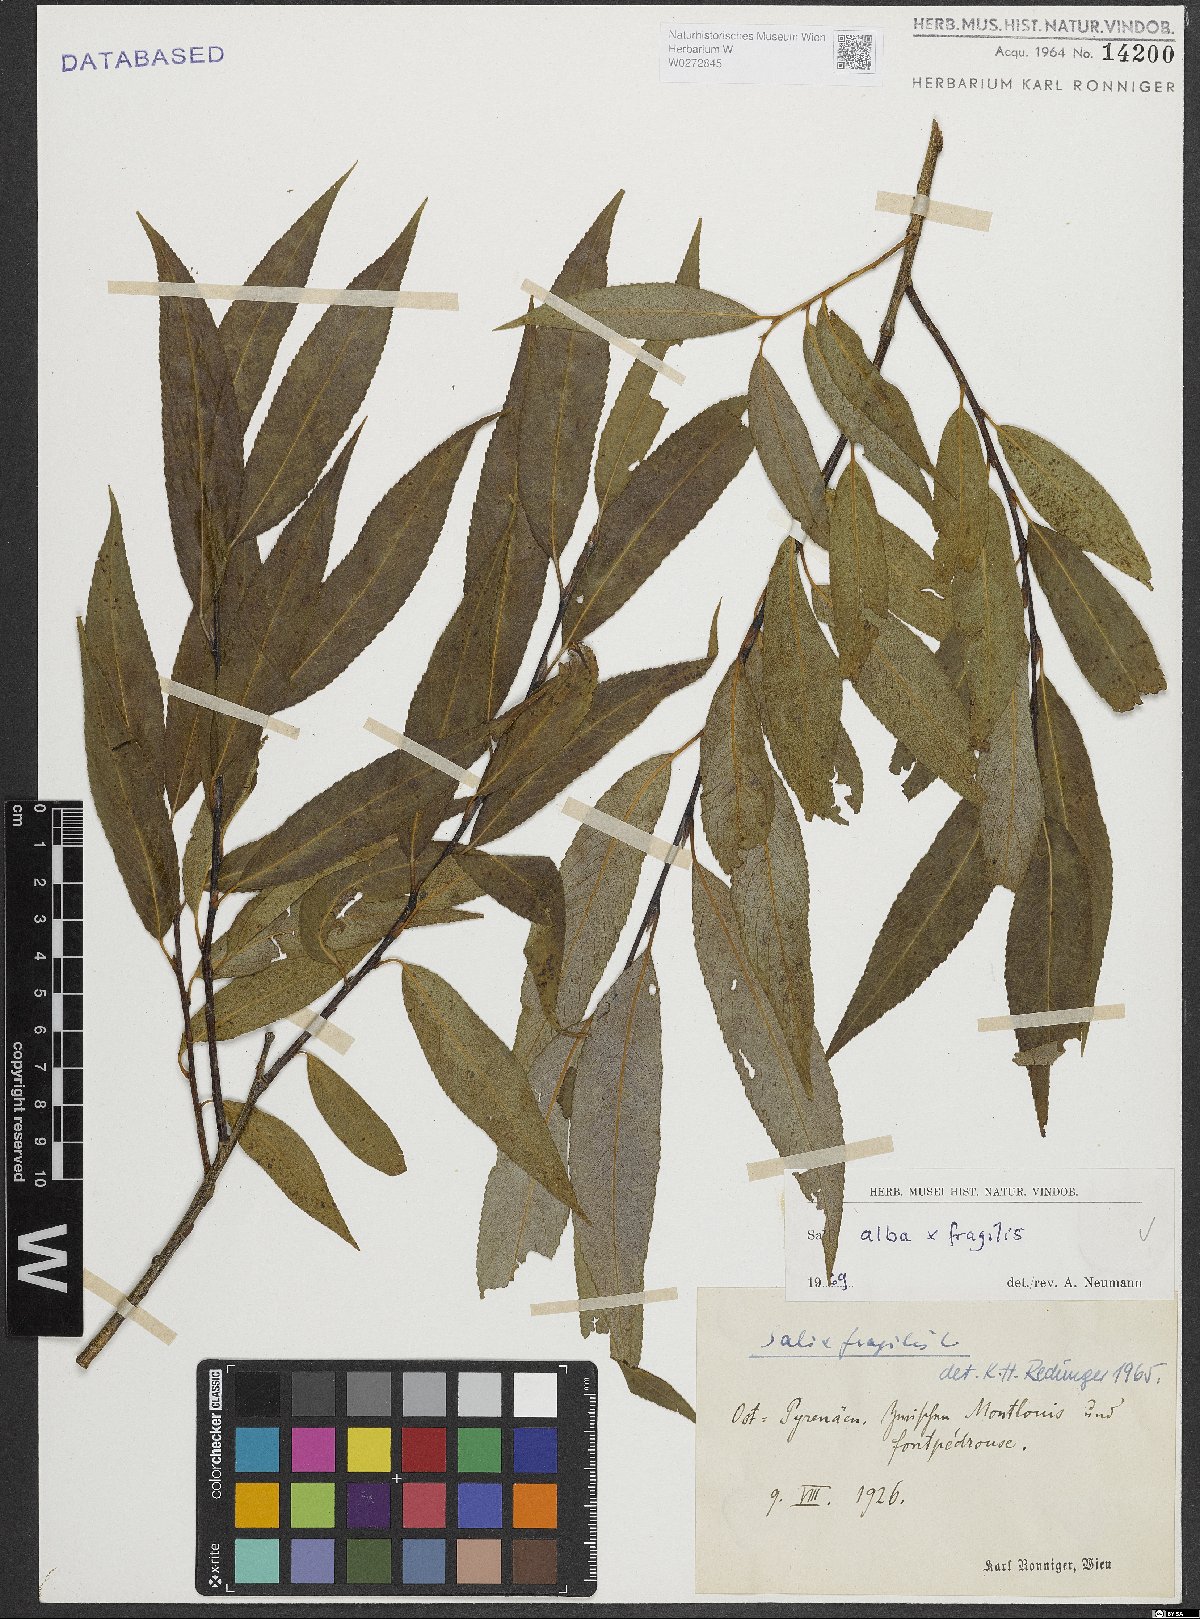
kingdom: Plantae
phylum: Tracheophyta
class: Magnoliopsida
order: Malpighiales
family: Salicaceae
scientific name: Salicaceae
